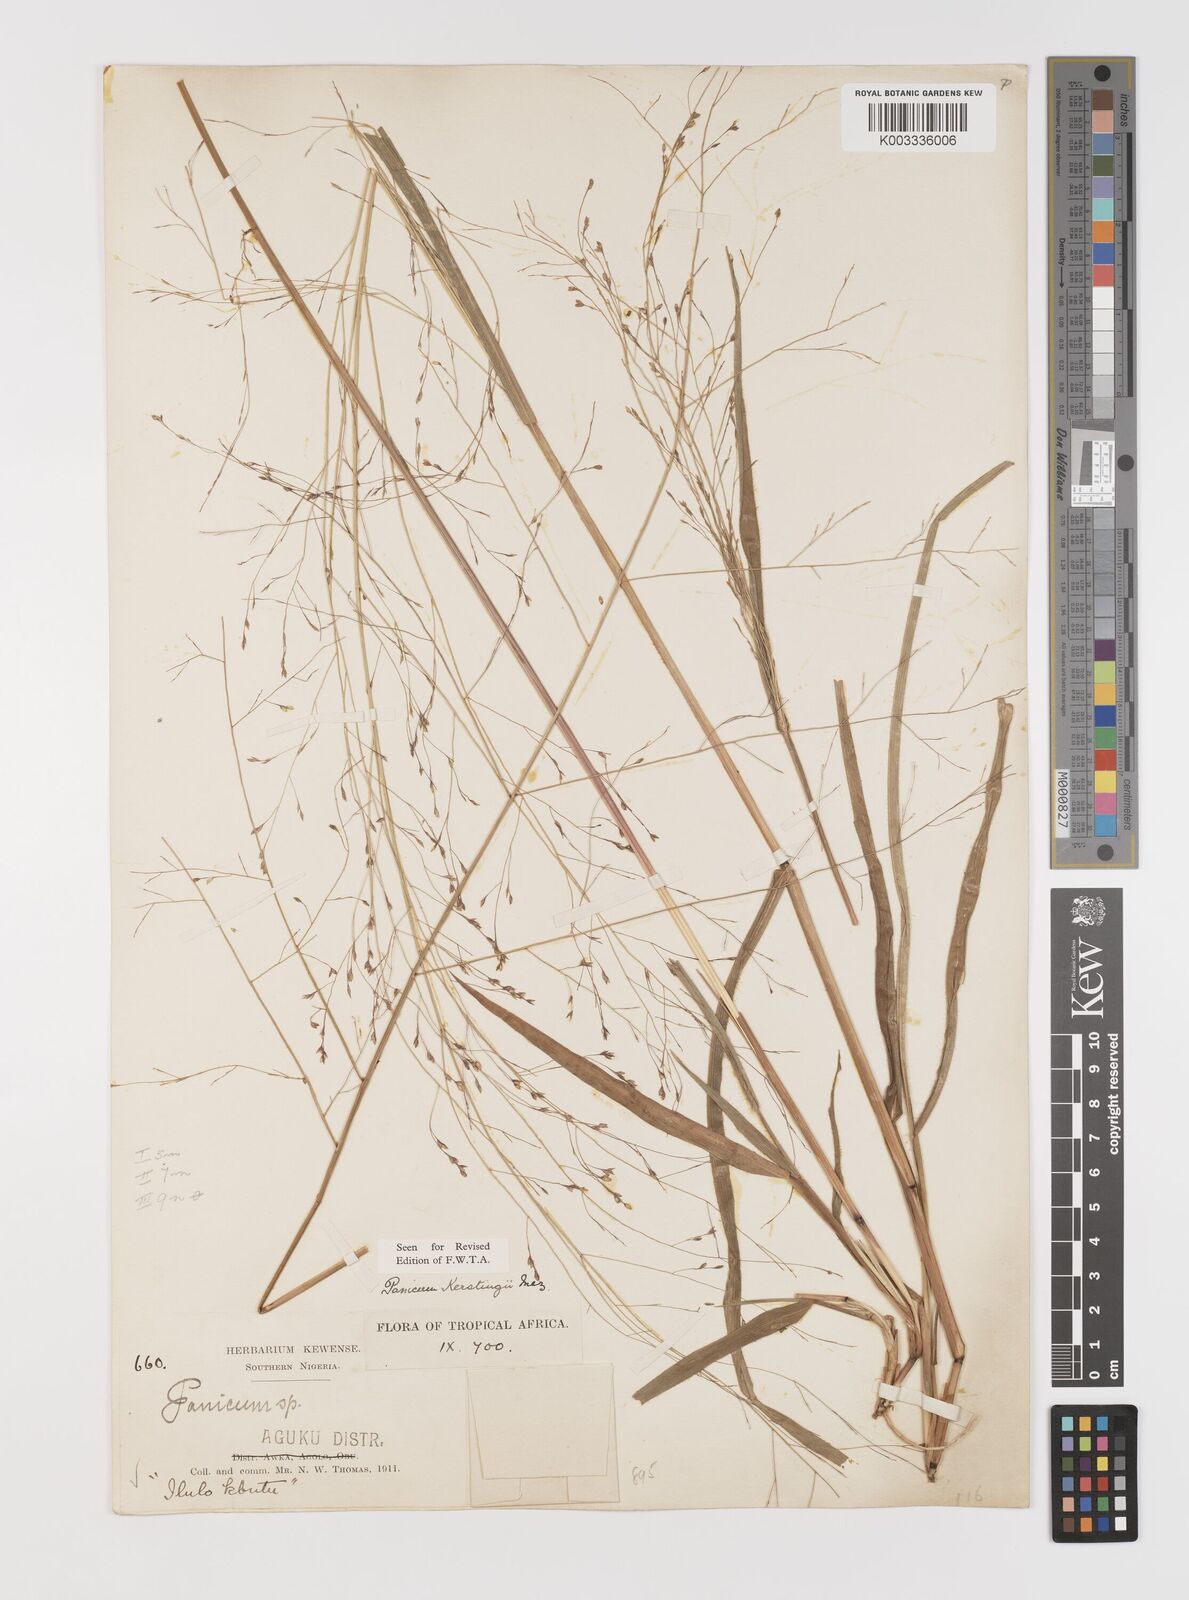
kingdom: Plantae
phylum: Tracheophyta
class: Liliopsida
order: Poales
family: Poaceae
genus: Panicum
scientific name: Panicum pansum
